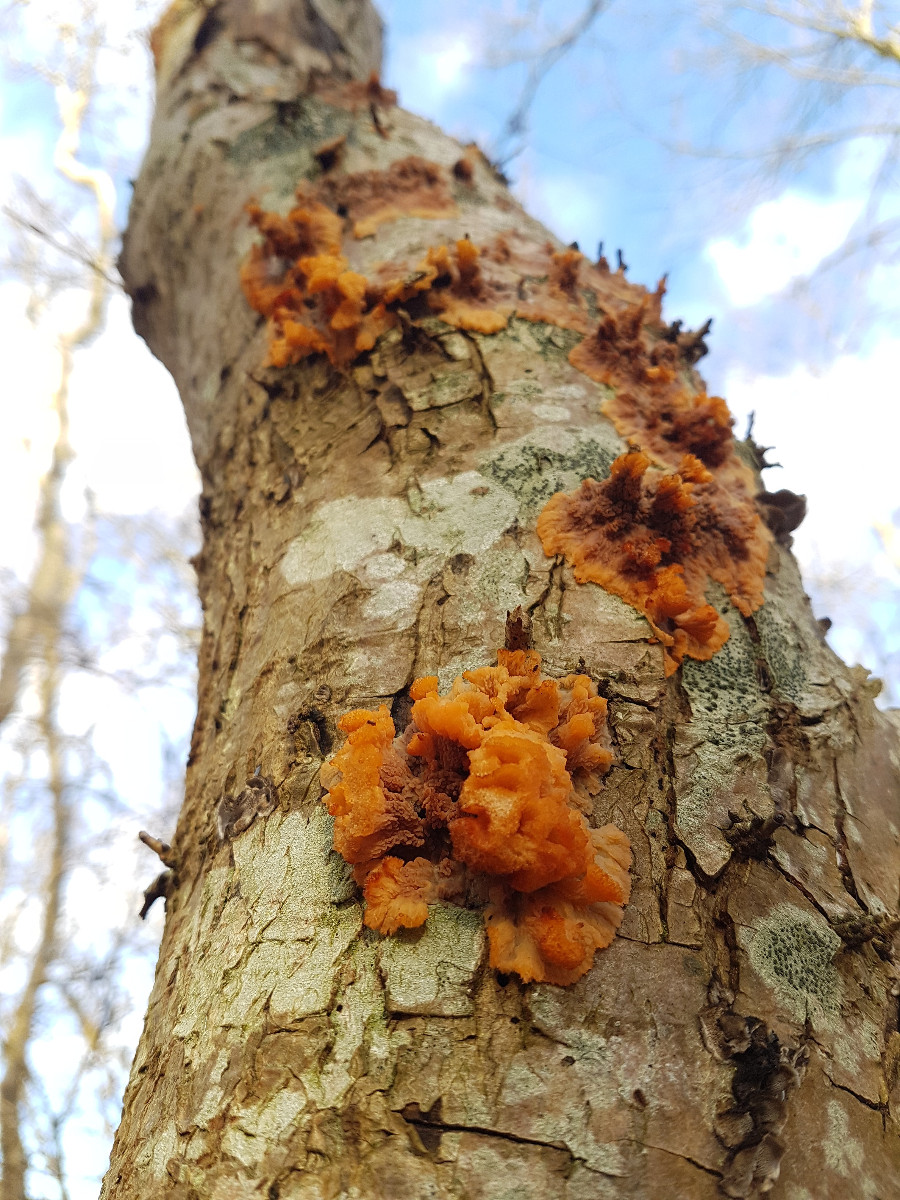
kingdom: Fungi
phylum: Basidiomycota
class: Agaricomycetes
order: Polyporales
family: Meruliaceae
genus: Phlebia
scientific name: Phlebia radiata
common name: stråle-åresvamp
